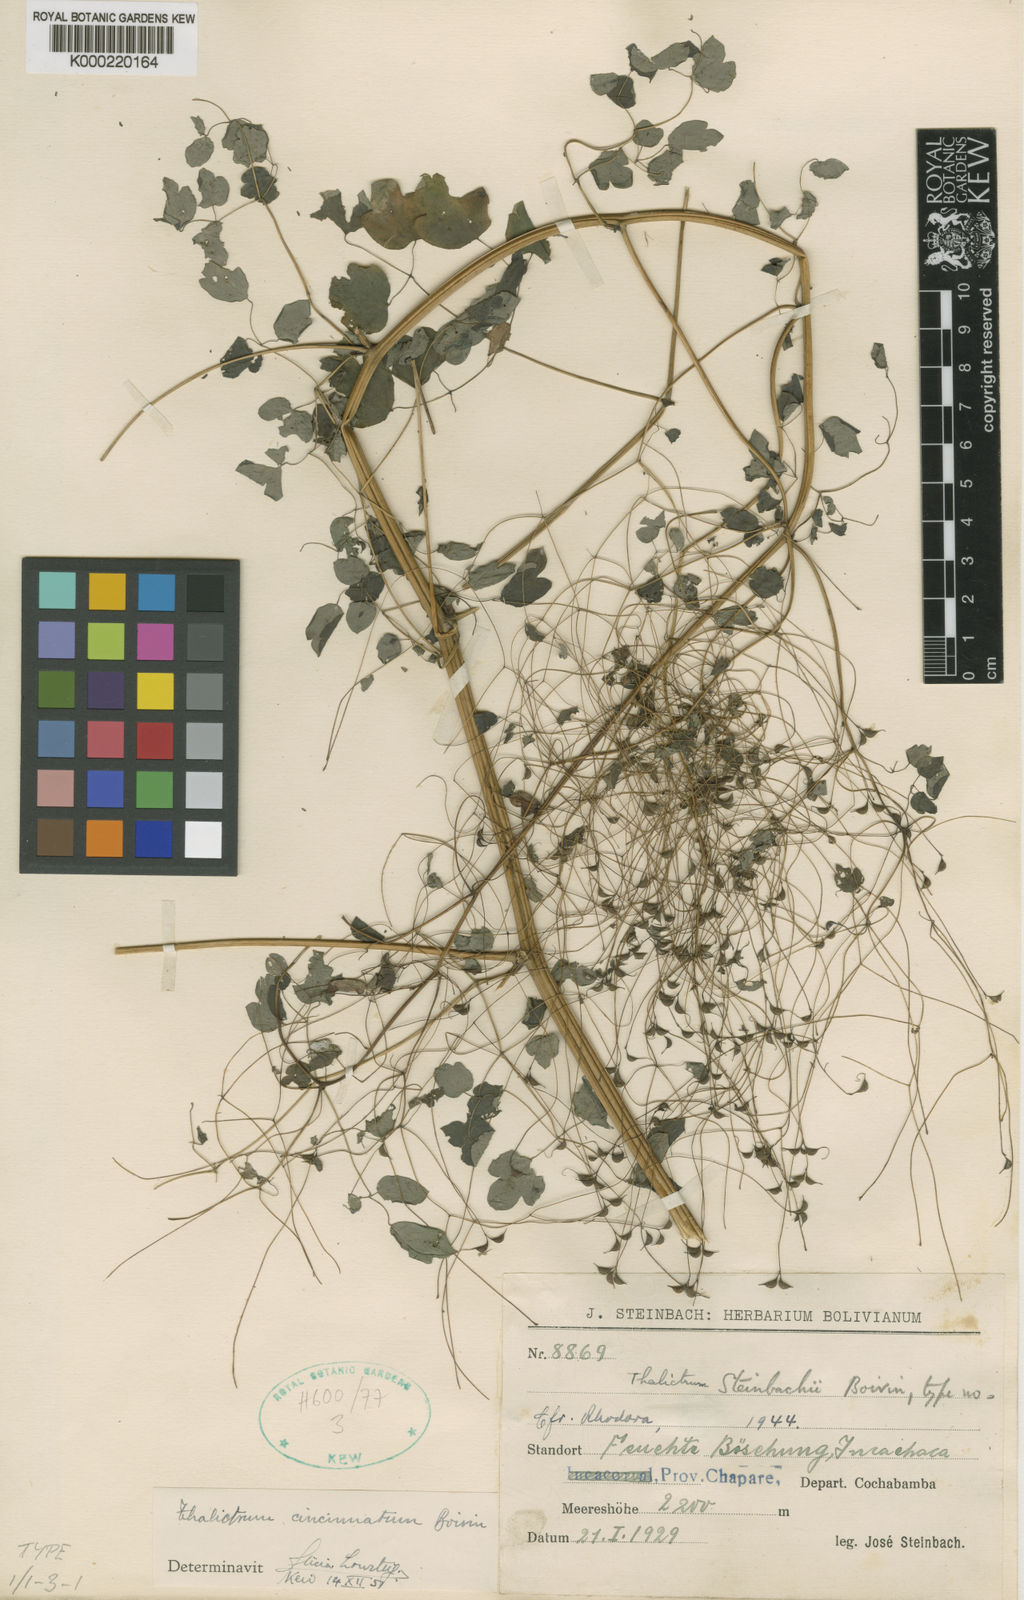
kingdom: Plantae
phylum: Tracheophyta
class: Magnoliopsida
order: Ranunculales
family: Ranunculaceae
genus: Thalictrum
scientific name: Thalictrum cincinnatum
